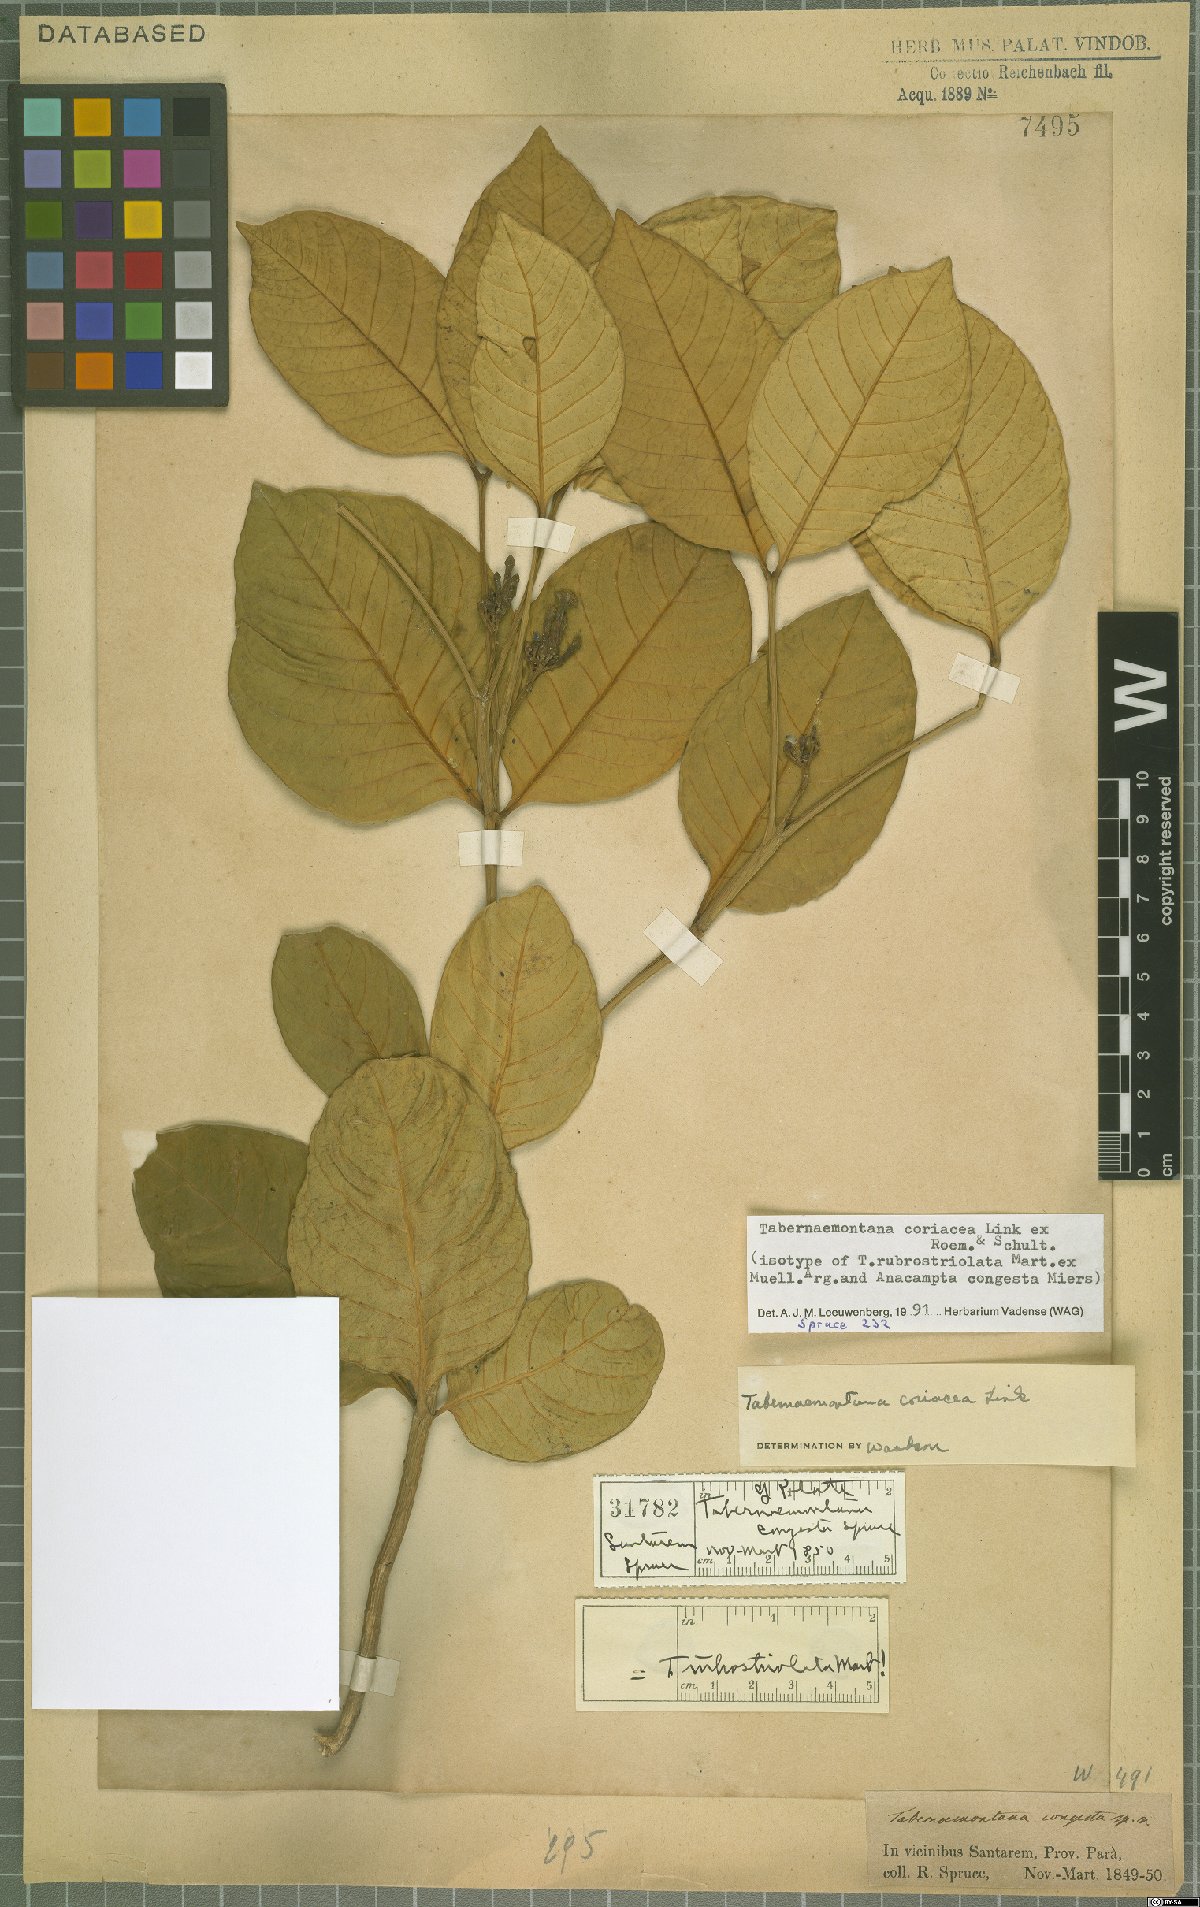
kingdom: Plantae
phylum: Tracheophyta
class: Magnoliopsida
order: Gentianales
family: Apocynaceae
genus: Tabernaemontana
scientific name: Tabernaemontana coriacea
